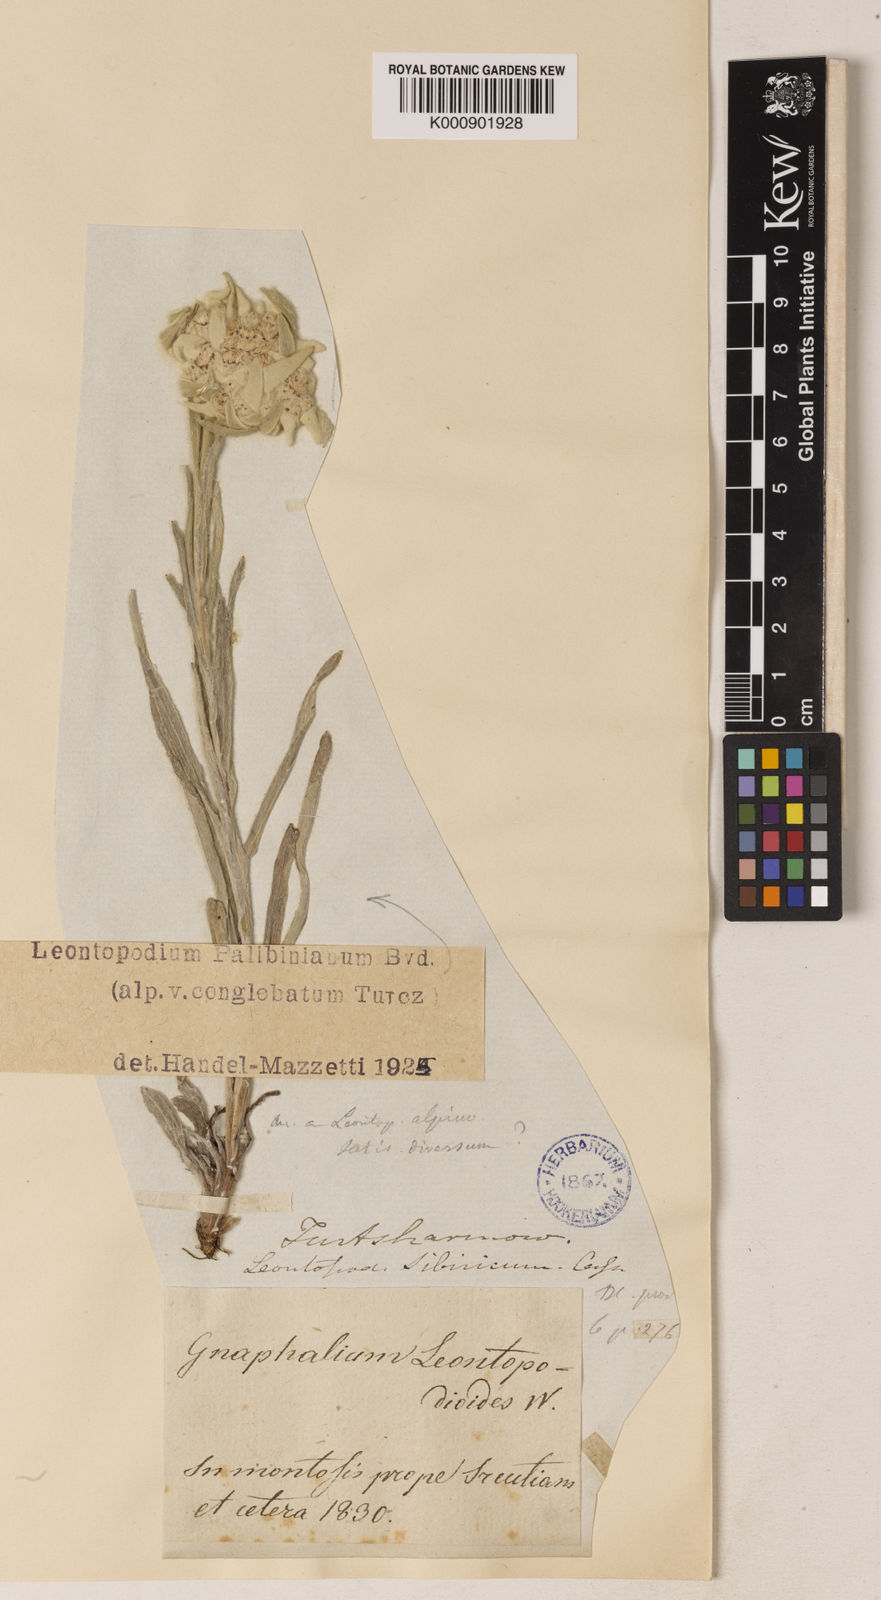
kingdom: Plantae
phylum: Tracheophyta
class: Magnoliopsida
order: Asterales
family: Asteraceae
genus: Leontopodium
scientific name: Leontopodium palibinianum
